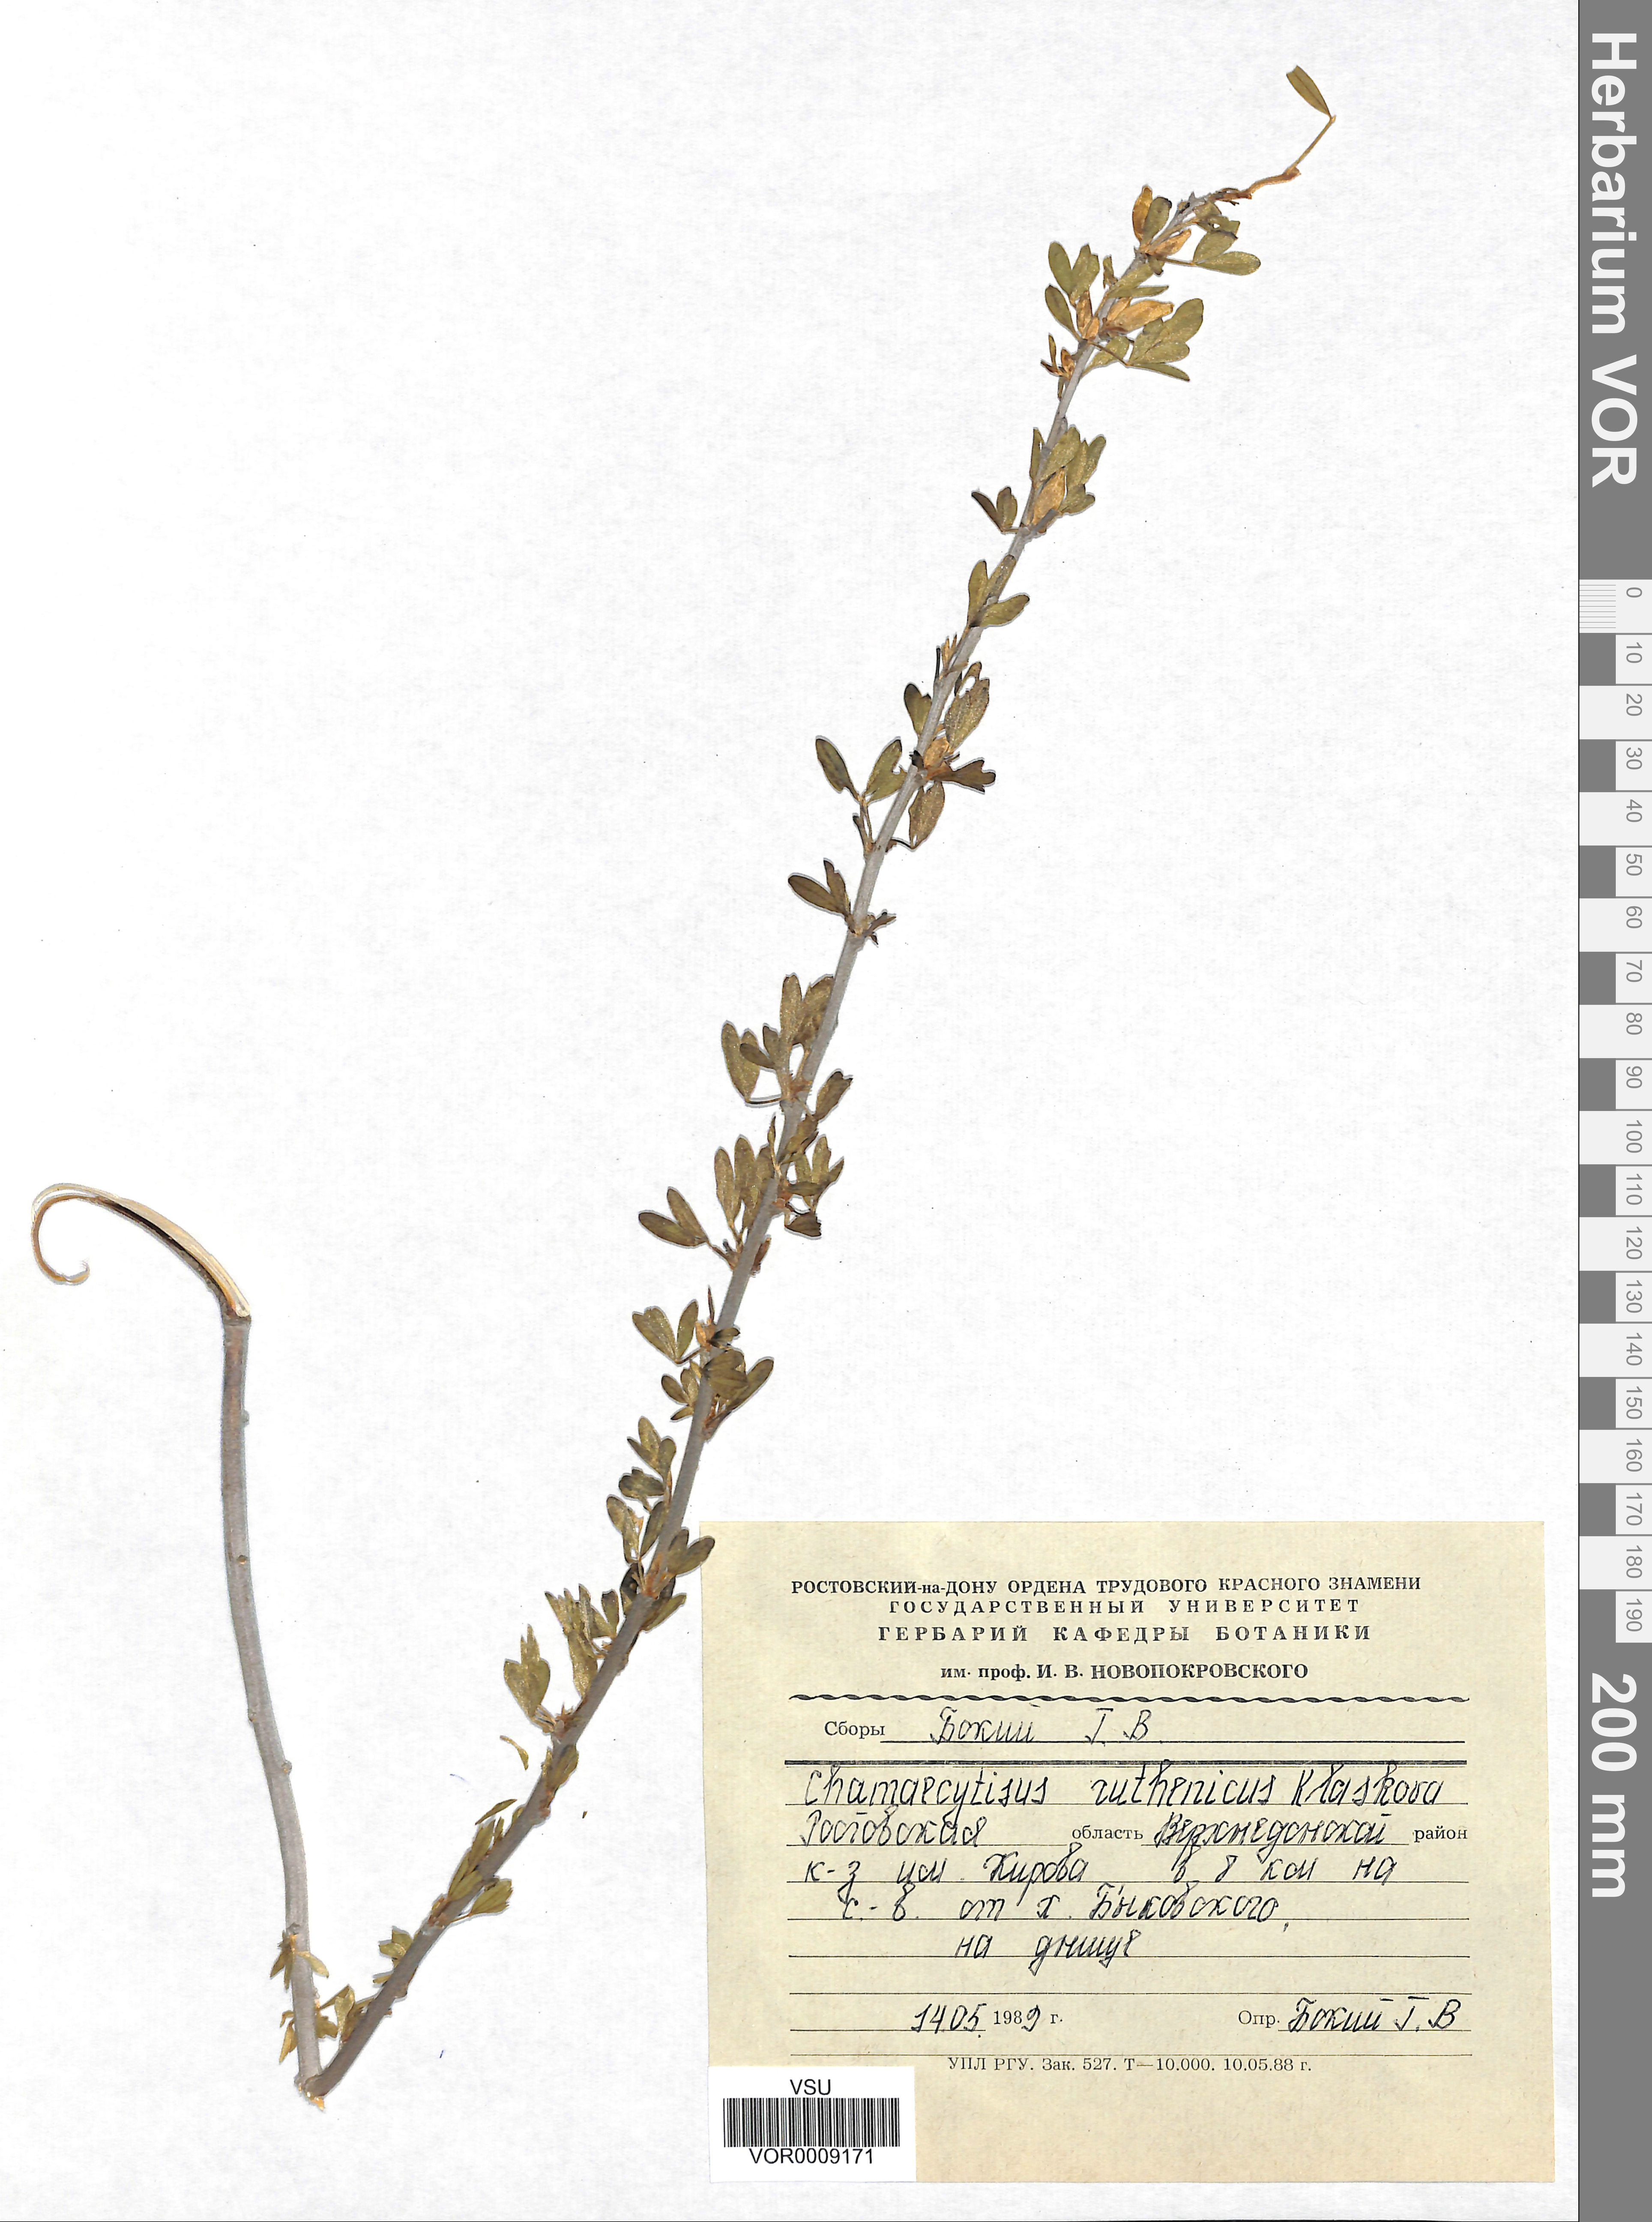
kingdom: Plantae
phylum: Tracheophyta
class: Magnoliopsida
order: Fabales
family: Fabaceae
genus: Chamaecytisus
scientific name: Chamaecytisus ruthenicus
